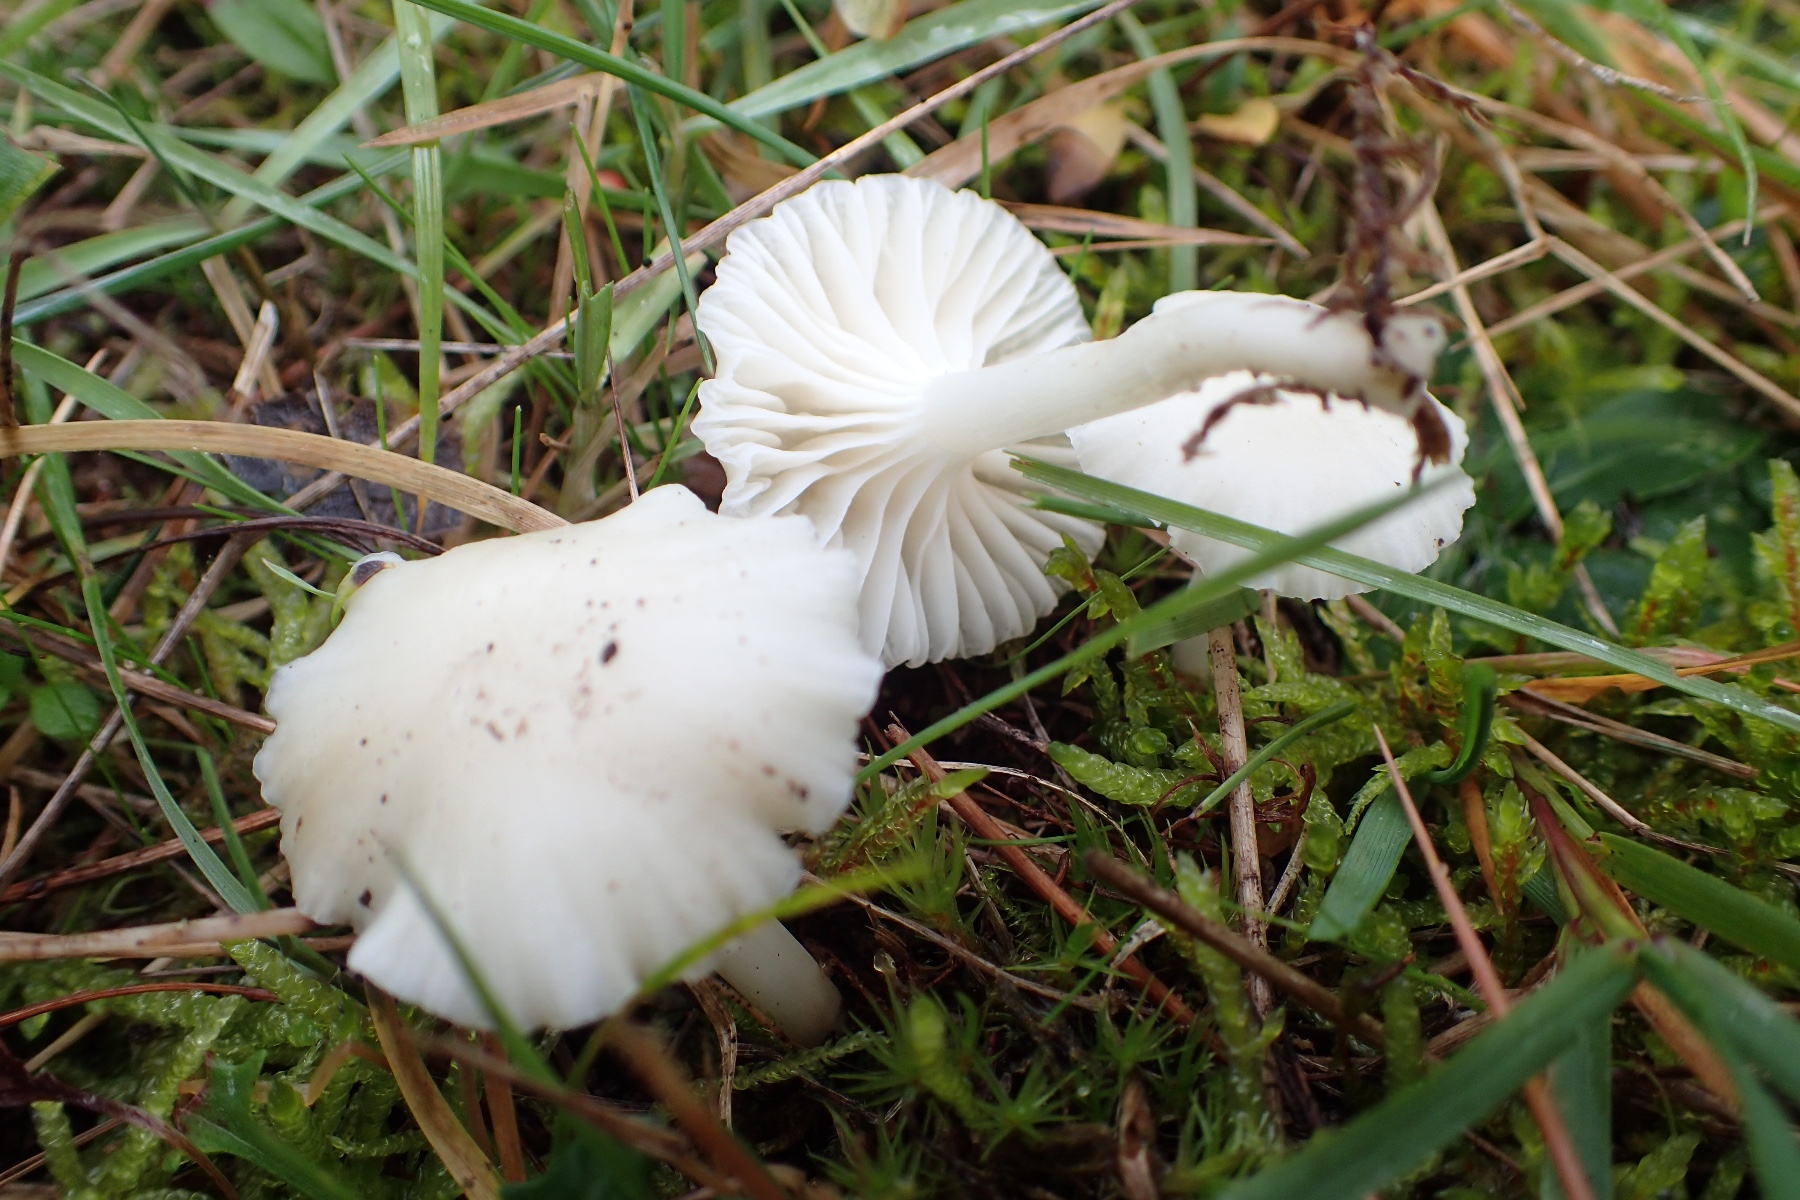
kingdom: Fungi
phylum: Basidiomycota
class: Agaricomycetes
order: Agaricales
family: Hygrophoraceae
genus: Cuphophyllus
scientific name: Cuphophyllus virgineus
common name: snehvid vokshat
